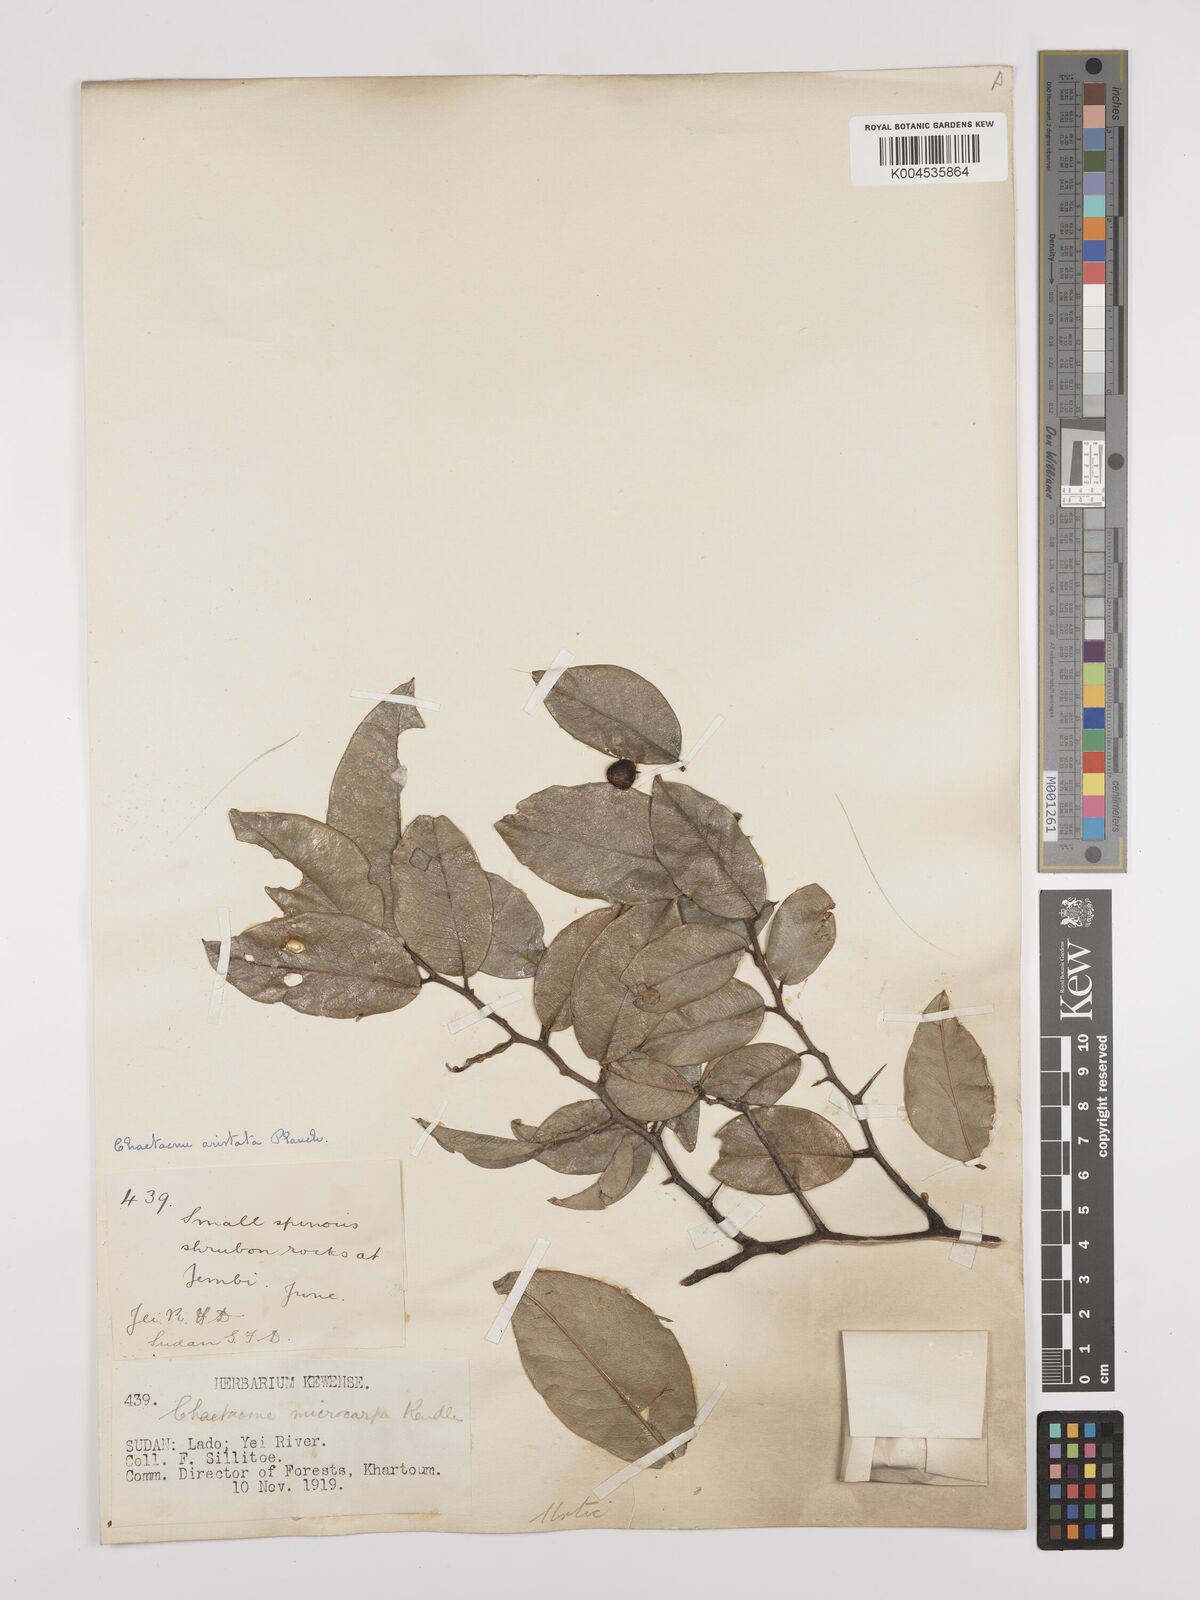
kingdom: Plantae
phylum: Tracheophyta
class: Magnoliopsida
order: Rosales
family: Cannabaceae
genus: Chaetachme
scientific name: Chaetachme aristata
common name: Thorny elm
